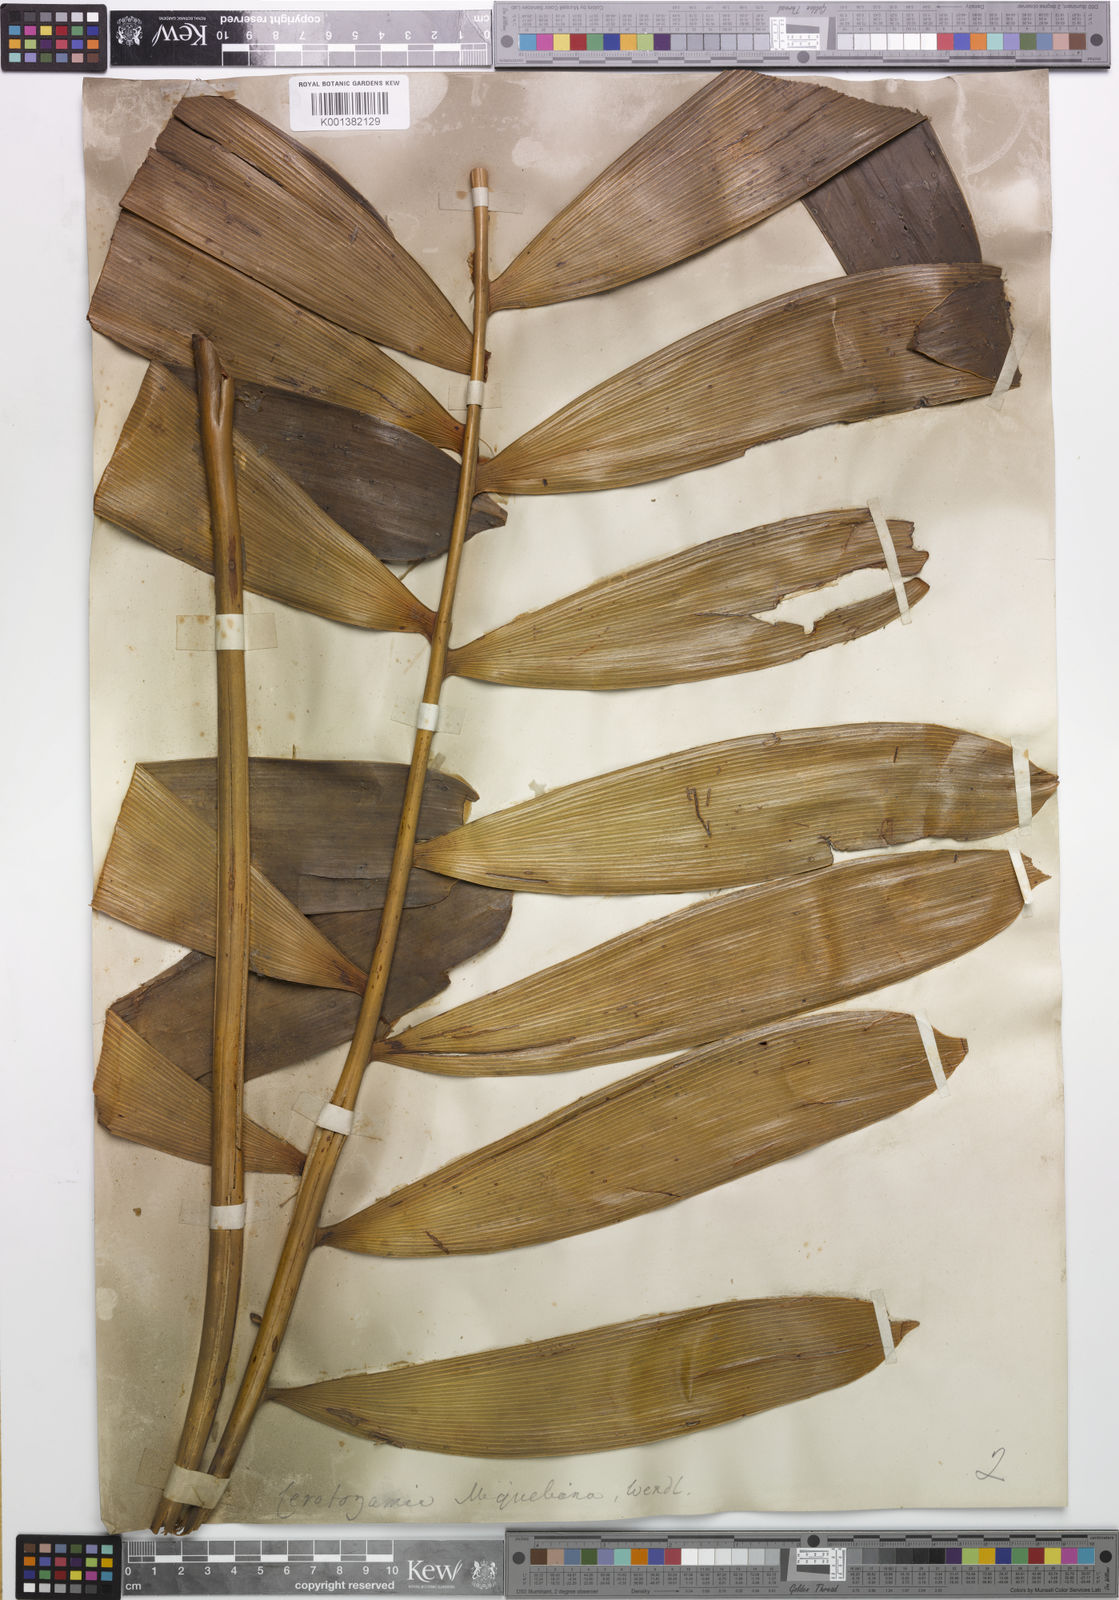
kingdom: Plantae
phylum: Tracheophyta
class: Cycadopsida
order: Cycadales
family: Zamiaceae
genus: Ceratozamia
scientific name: Ceratozamia miqueliana
